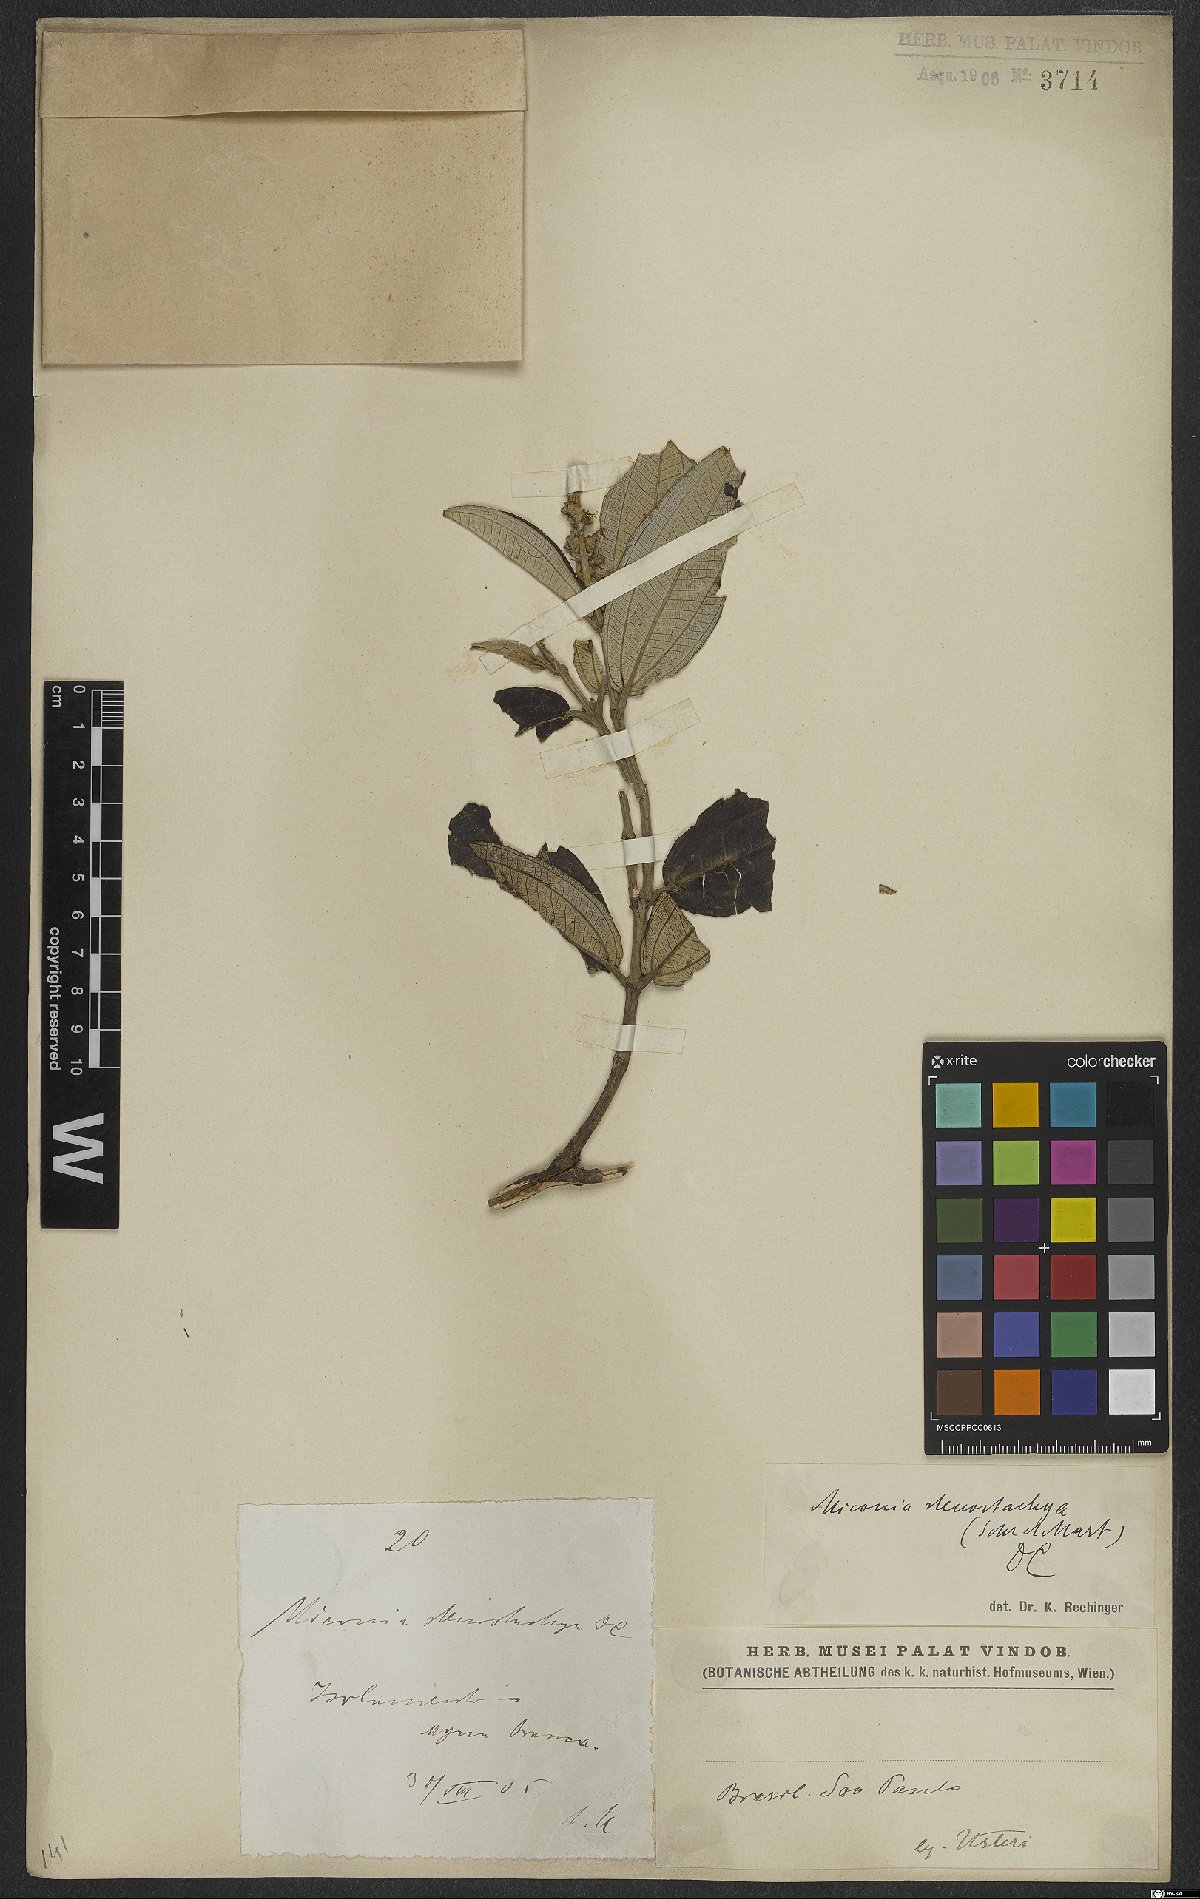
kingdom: Plantae
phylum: Tracheophyta
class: Magnoliopsida
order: Myrtales
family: Melastomataceae
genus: Miconia
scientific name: Miconia stenostachya
